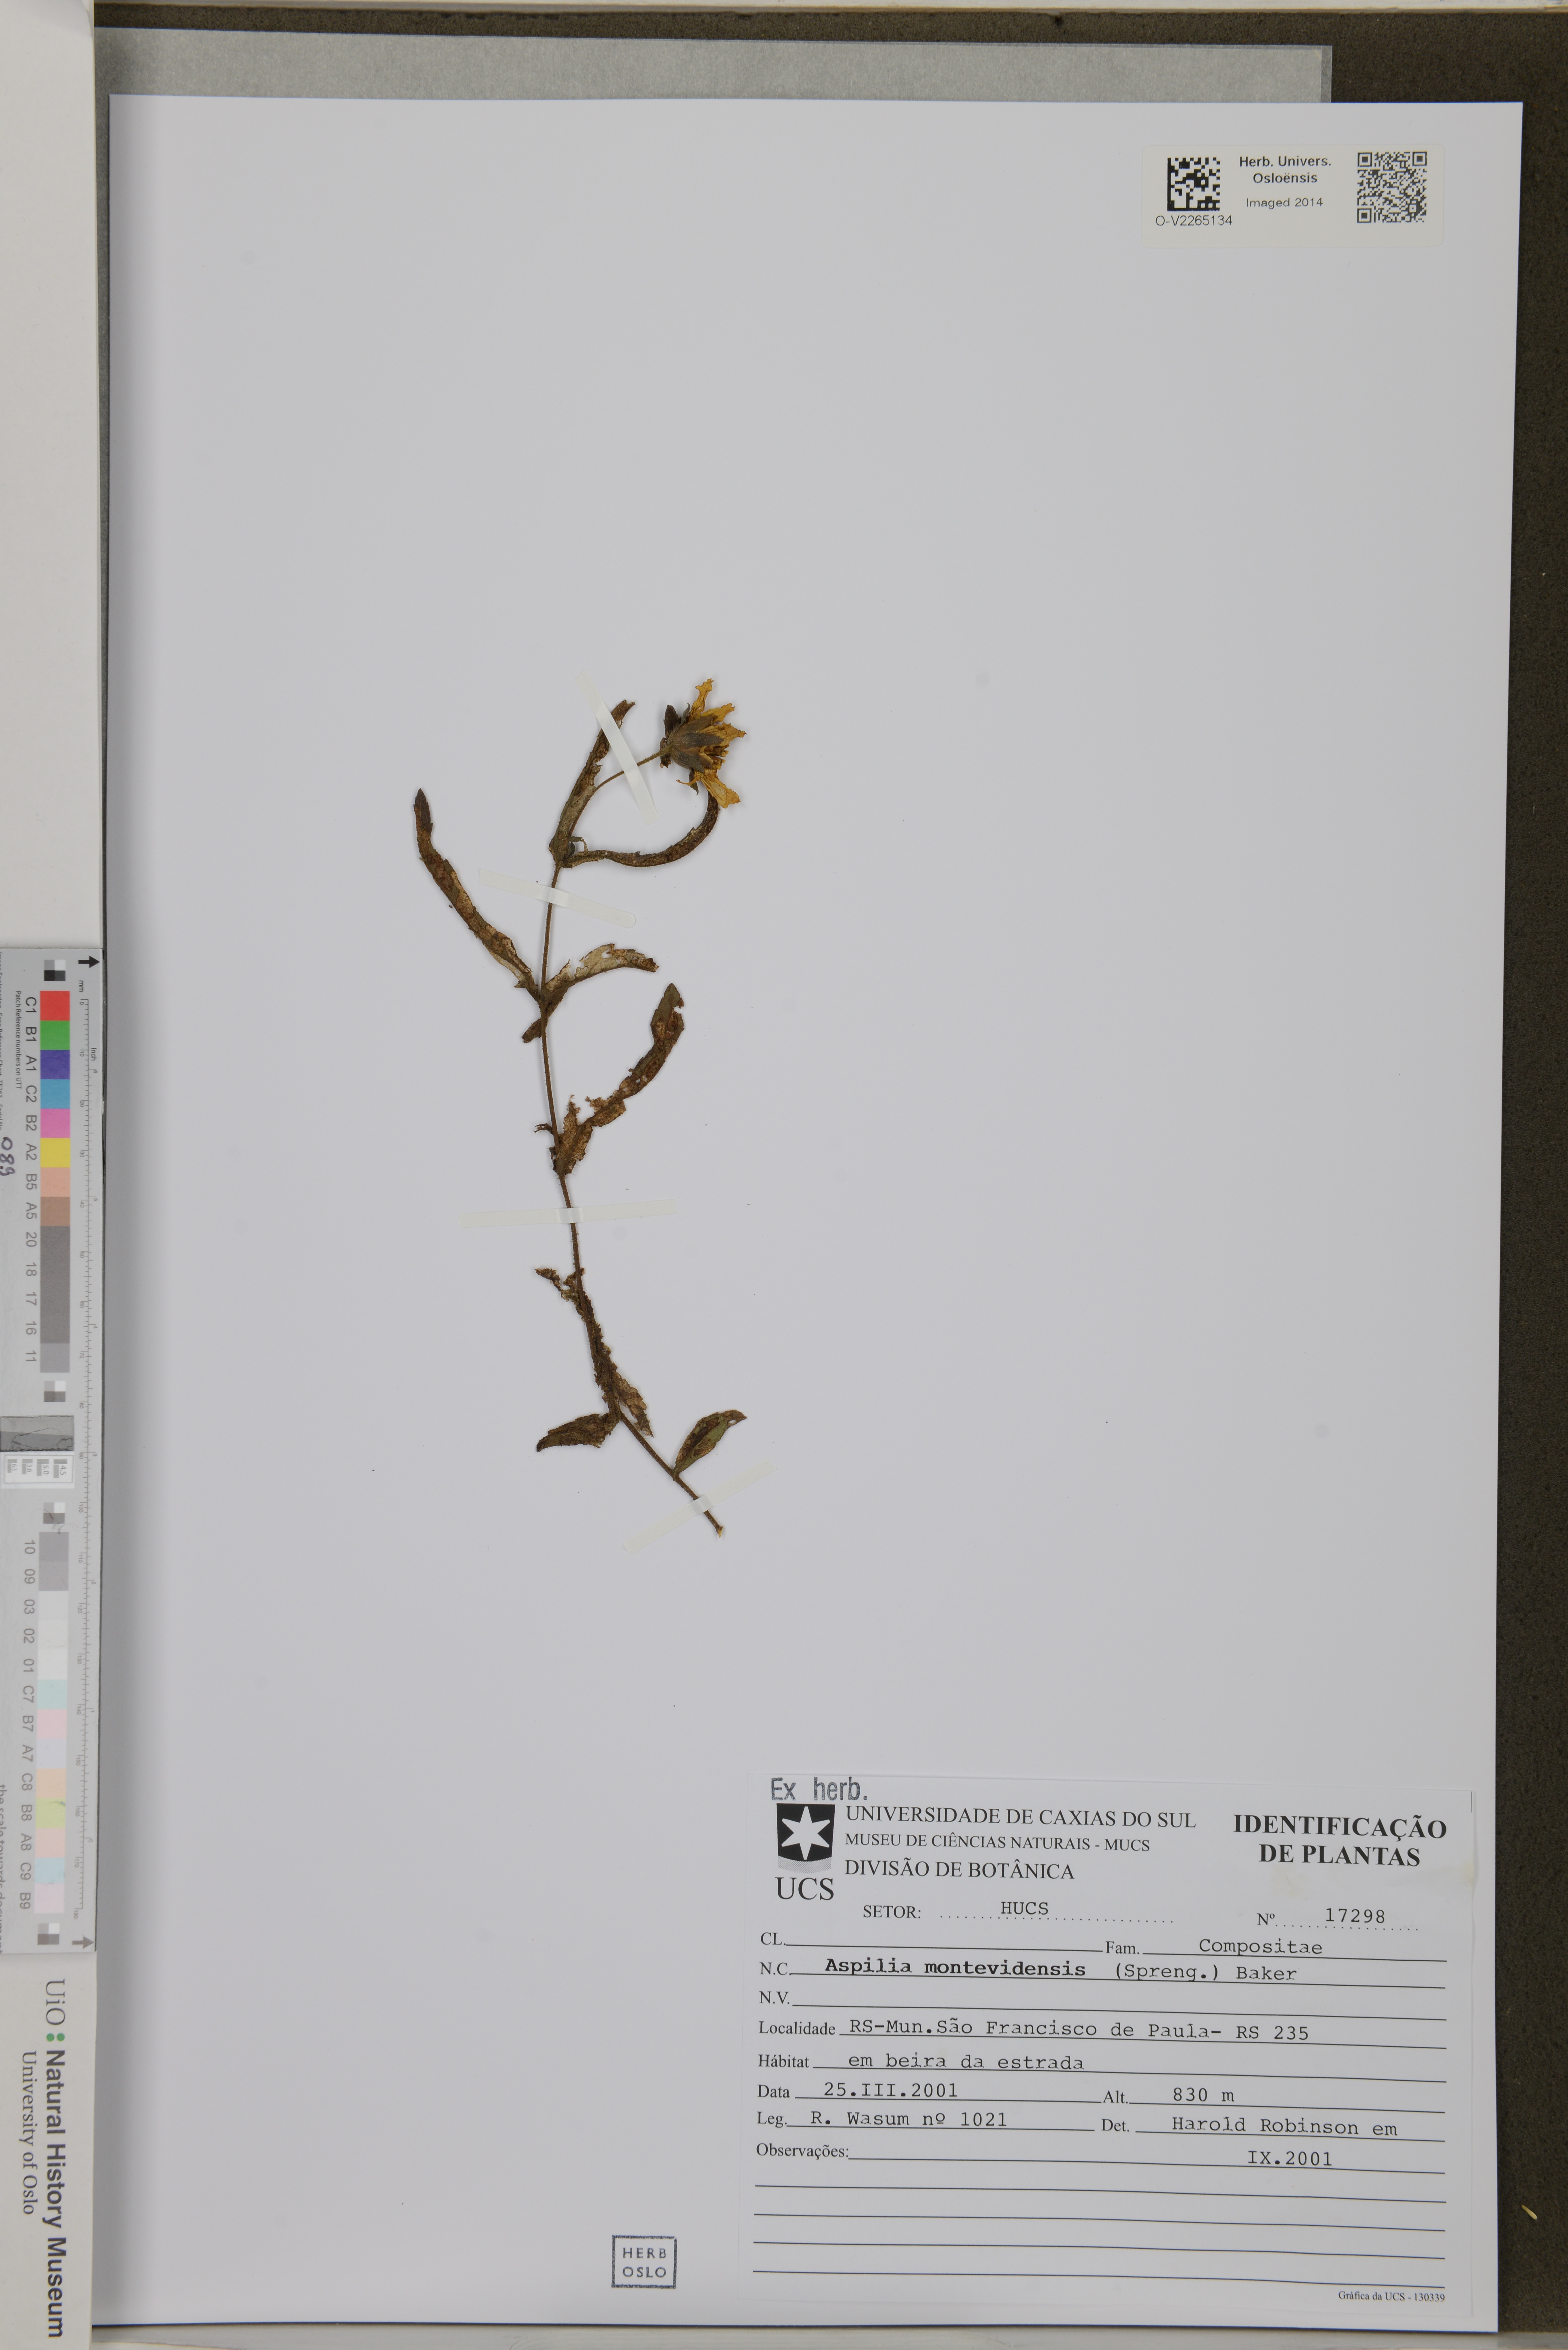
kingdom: Plantae
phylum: Tracheophyta
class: Magnoliopsida
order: Asterales
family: Asteraceae
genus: Wedelia
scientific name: Wedelia montevidensis
